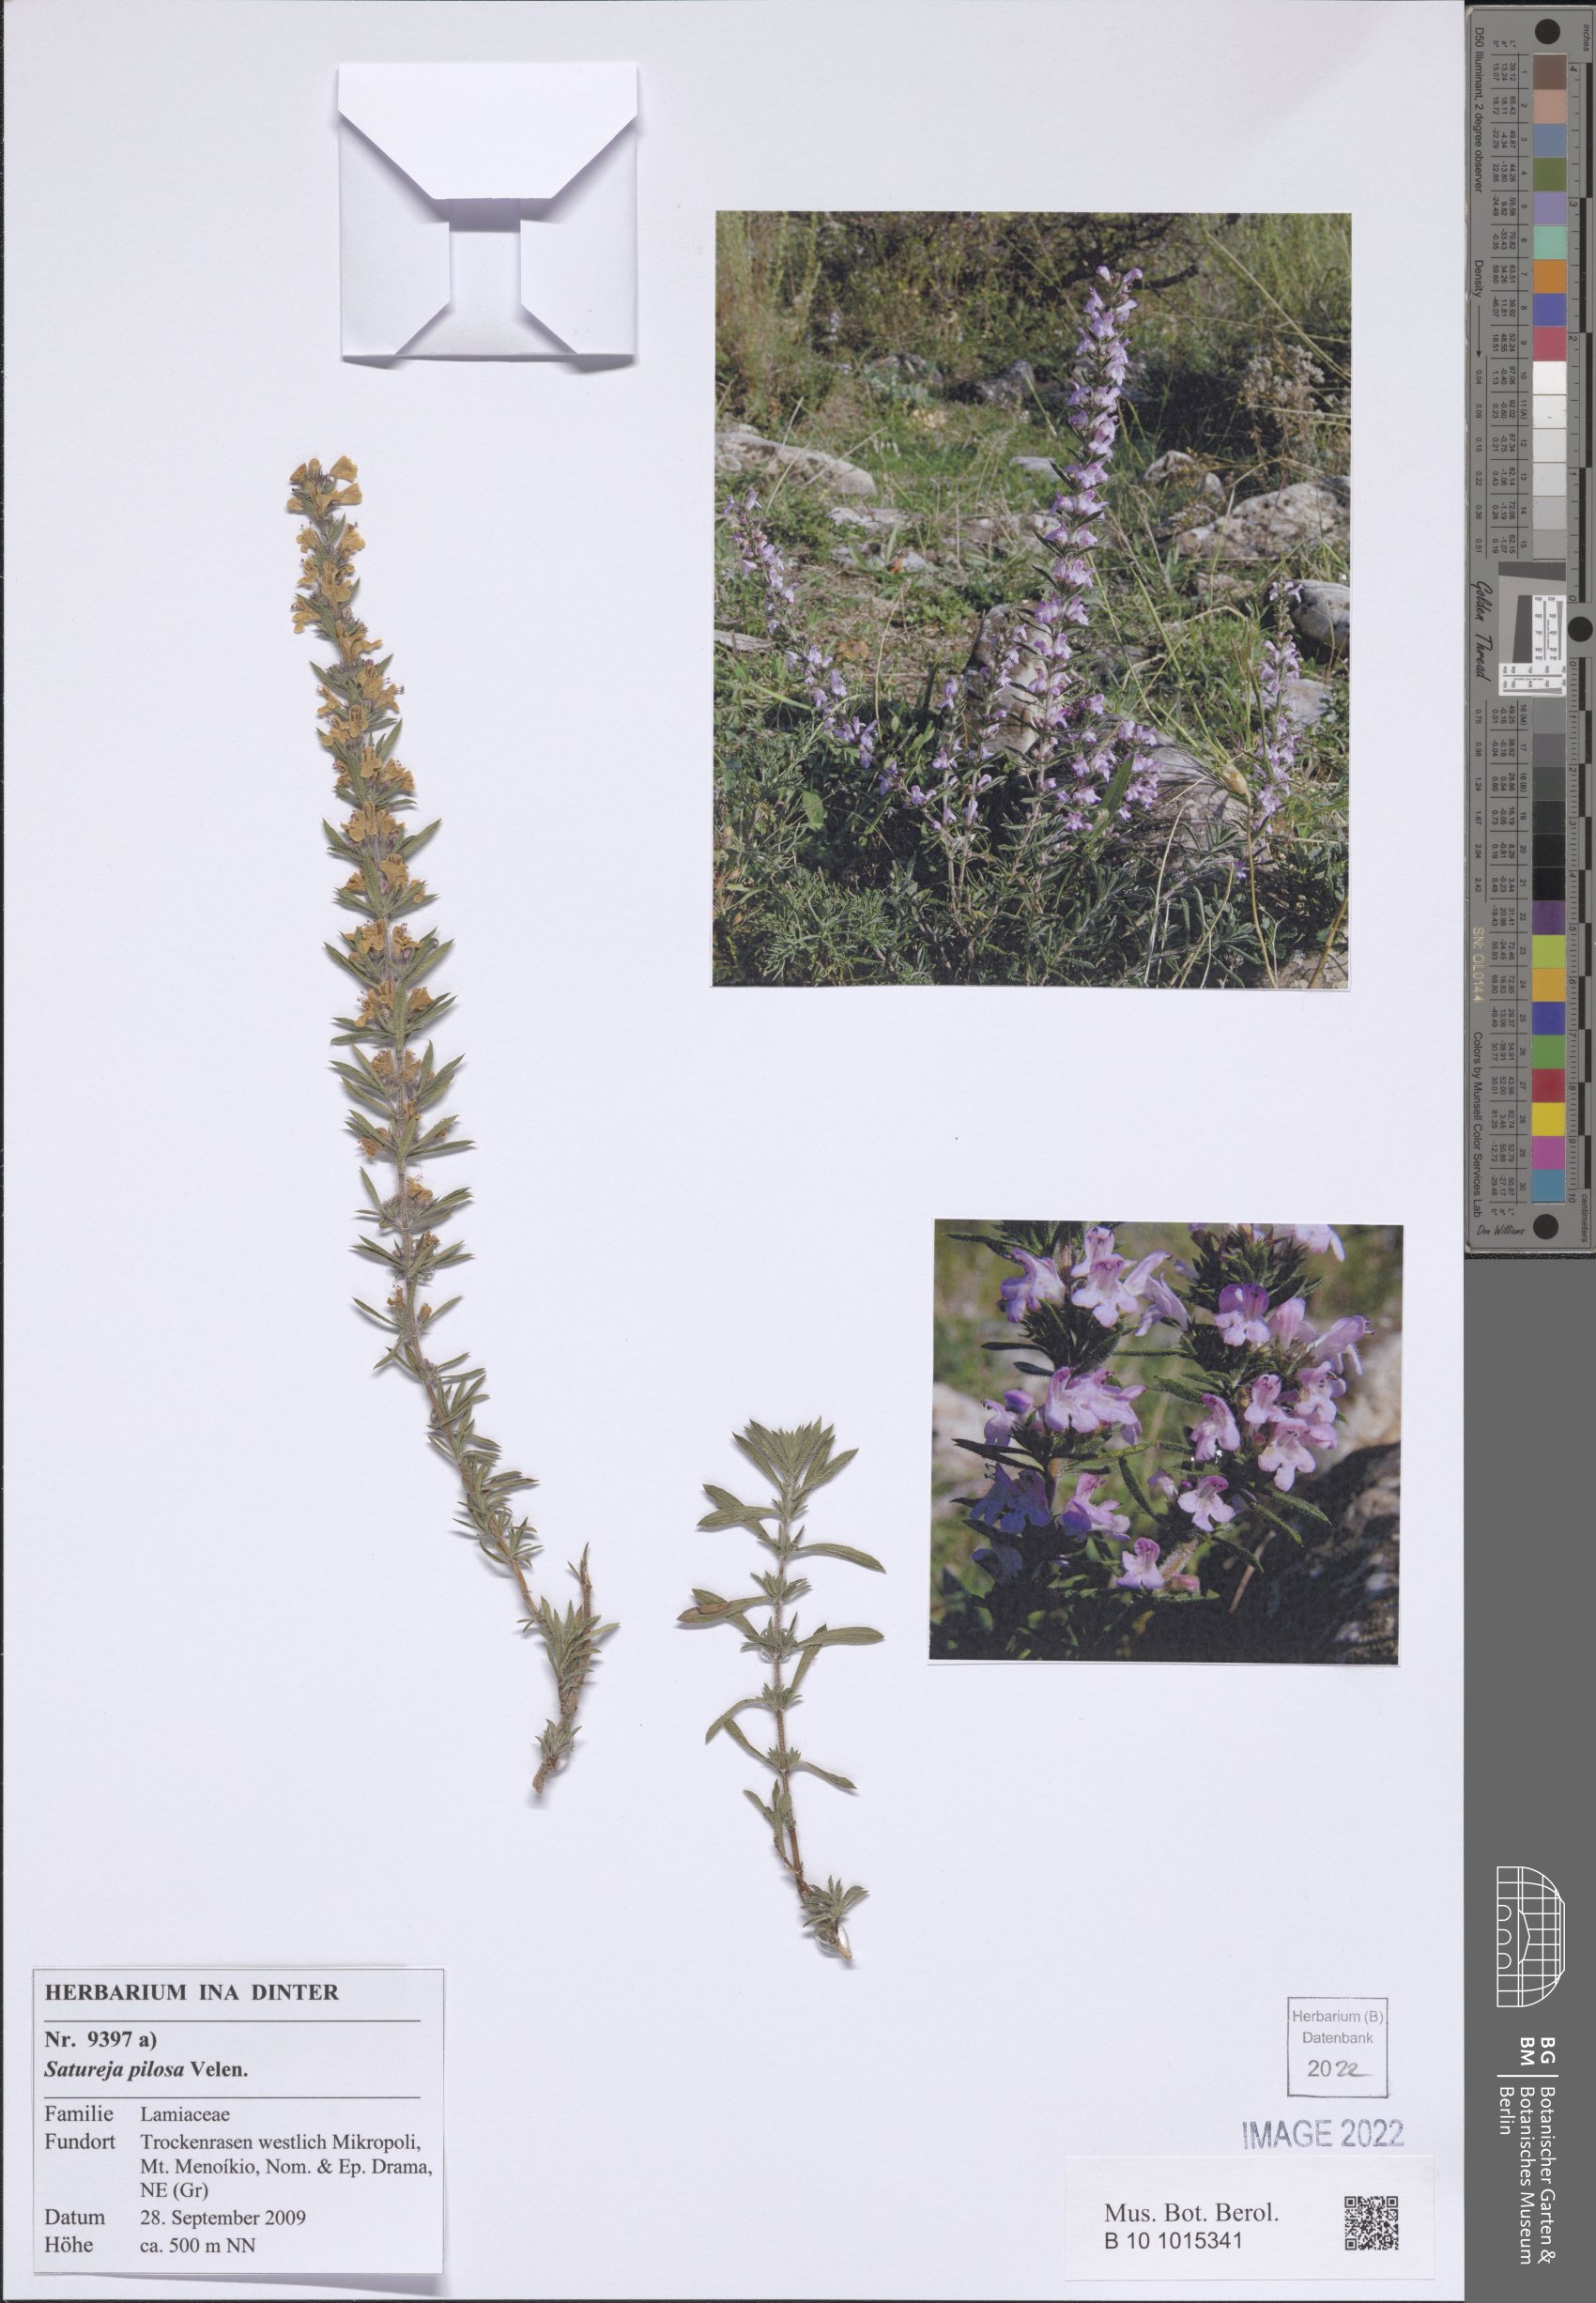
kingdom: Plantae
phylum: Tracheophyta
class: Magnoliopsida
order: Lamiales
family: Lamiaceae
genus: Satureja
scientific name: Satureja pilosa
